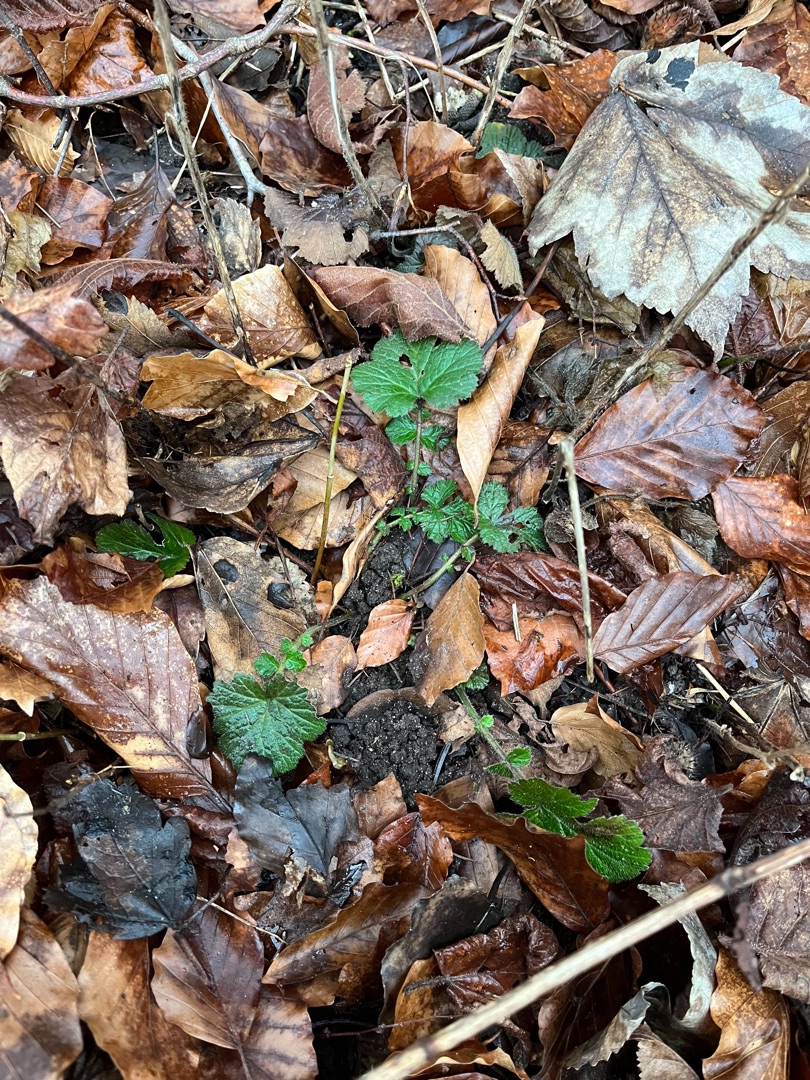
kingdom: Plantae
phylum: Tracheophyta
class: Magnoliopsida
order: Rosales
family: Rosaceae
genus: Geum
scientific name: Geum urbanum
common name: Feber-nellikerod
